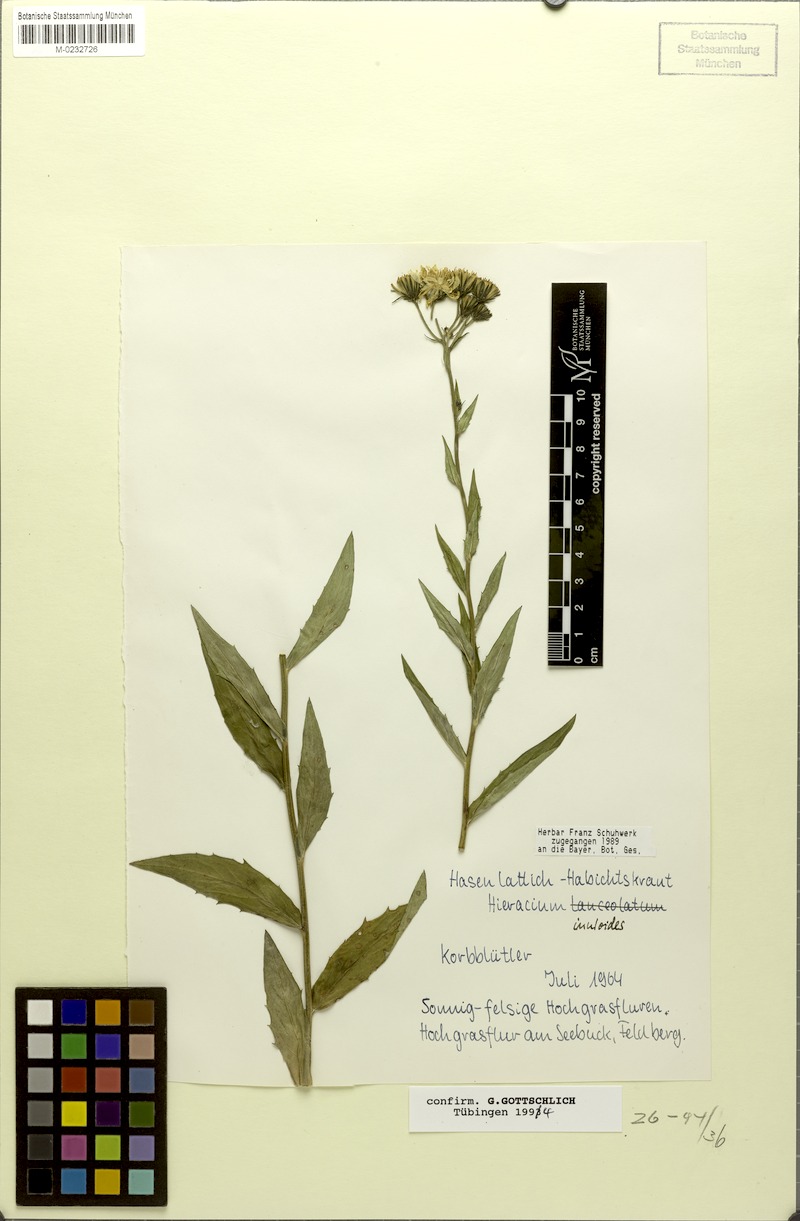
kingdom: Plantae
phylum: Tracheophyta
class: Magnoliopsida
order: Asterales
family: Asteraceae
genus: Hieracium
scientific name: Hieracium inuloides
